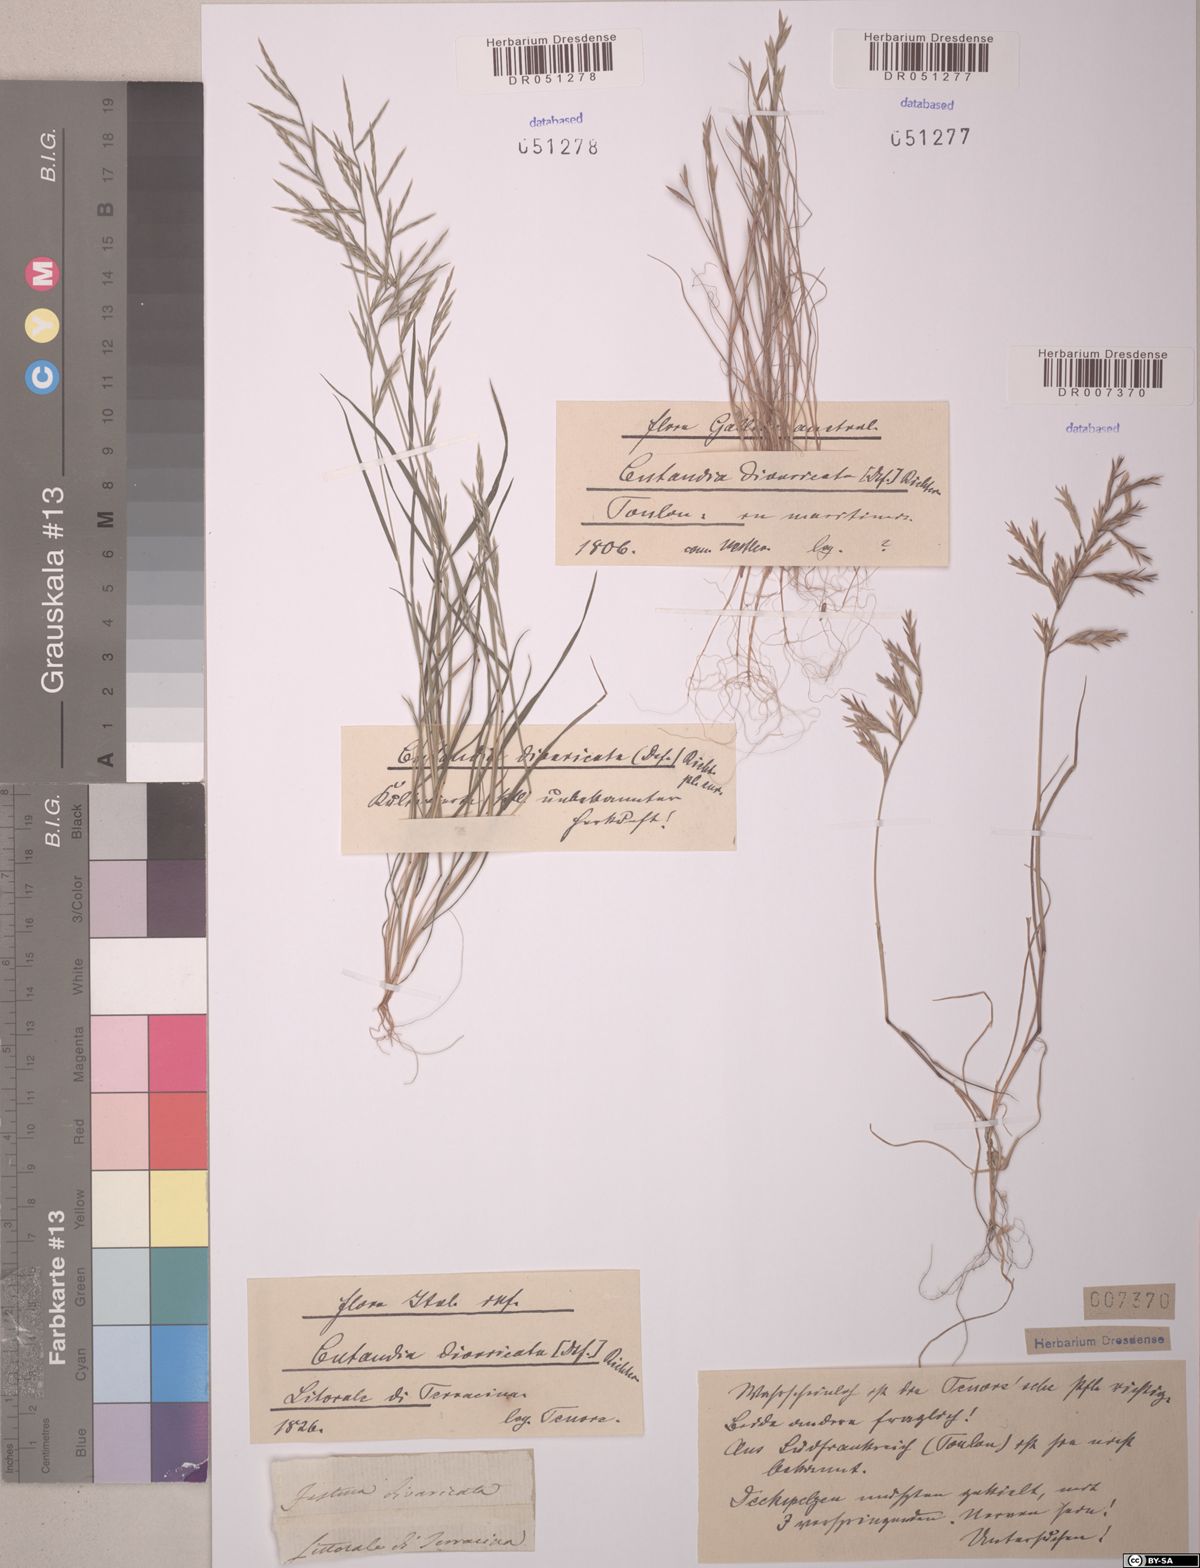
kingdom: Plantae
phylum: Tracheophyta
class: Liliopsida
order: Poales
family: Poaceae
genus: Cutandia
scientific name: Cutandia divaricata
